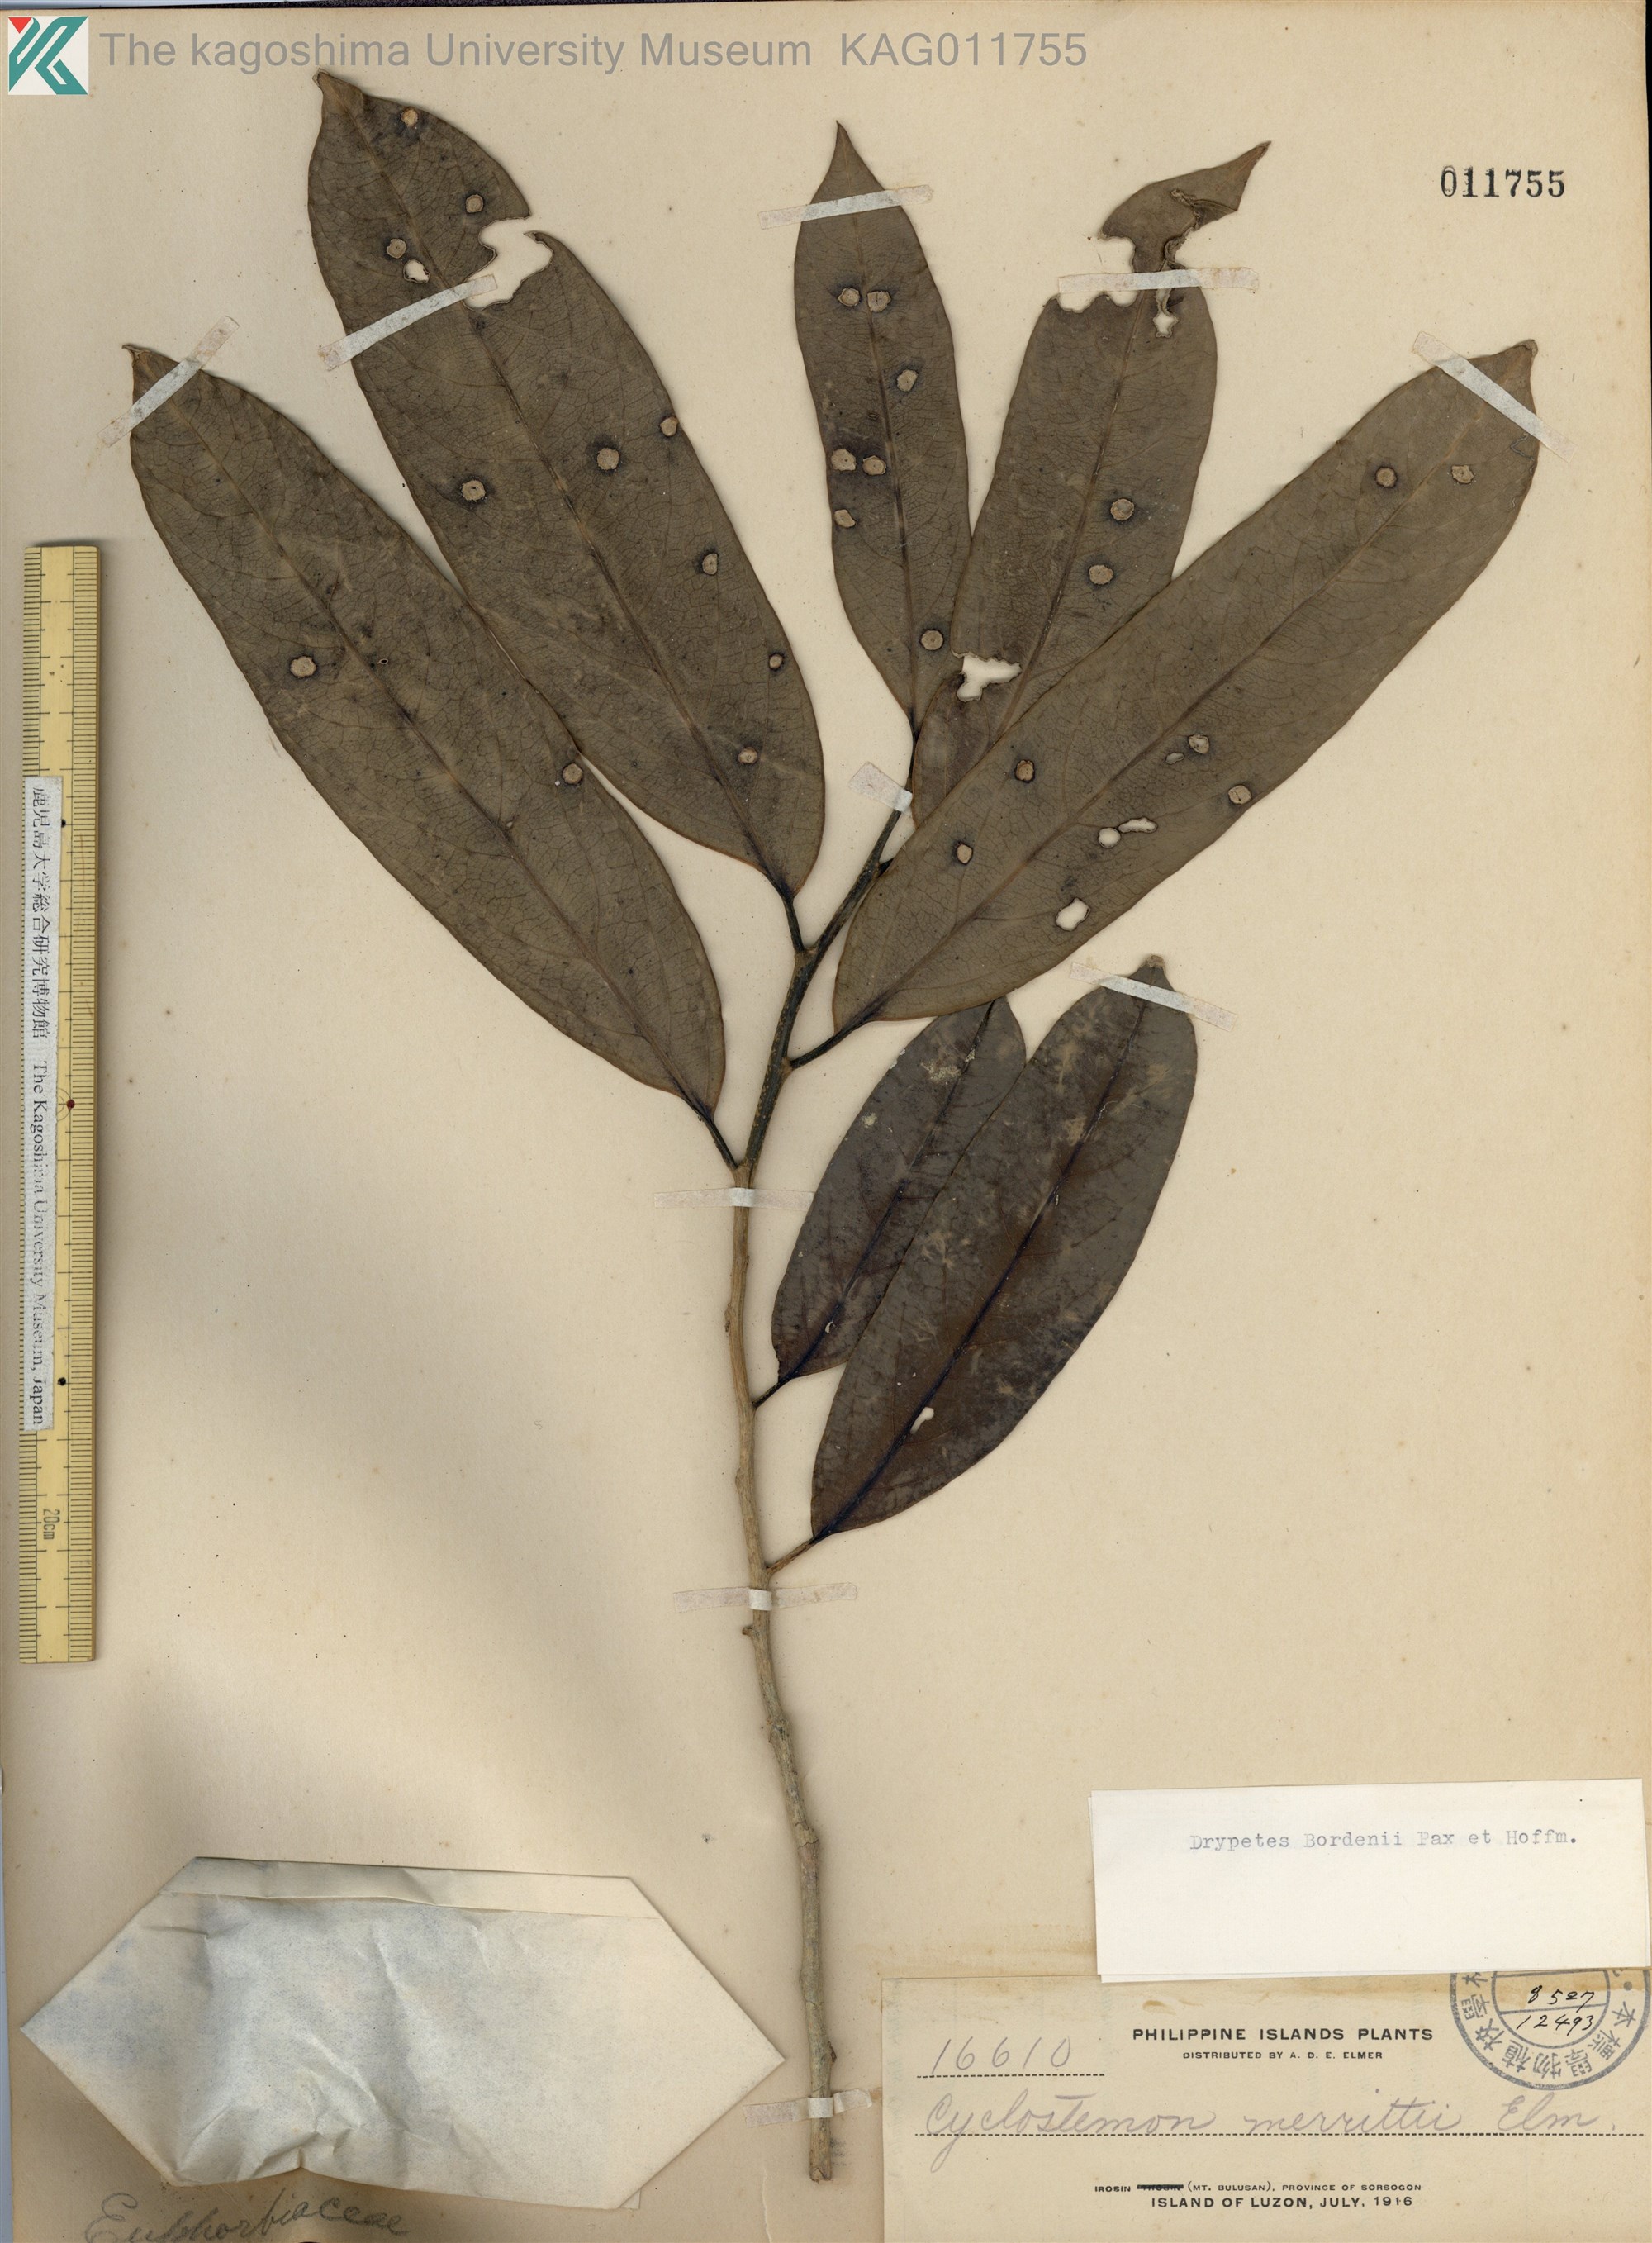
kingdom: Plantae
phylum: Tracheophyta
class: Magnoliopsida
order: Malpighiales
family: Putranjivaceae
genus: Drypetes
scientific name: Drypetes longifolia
